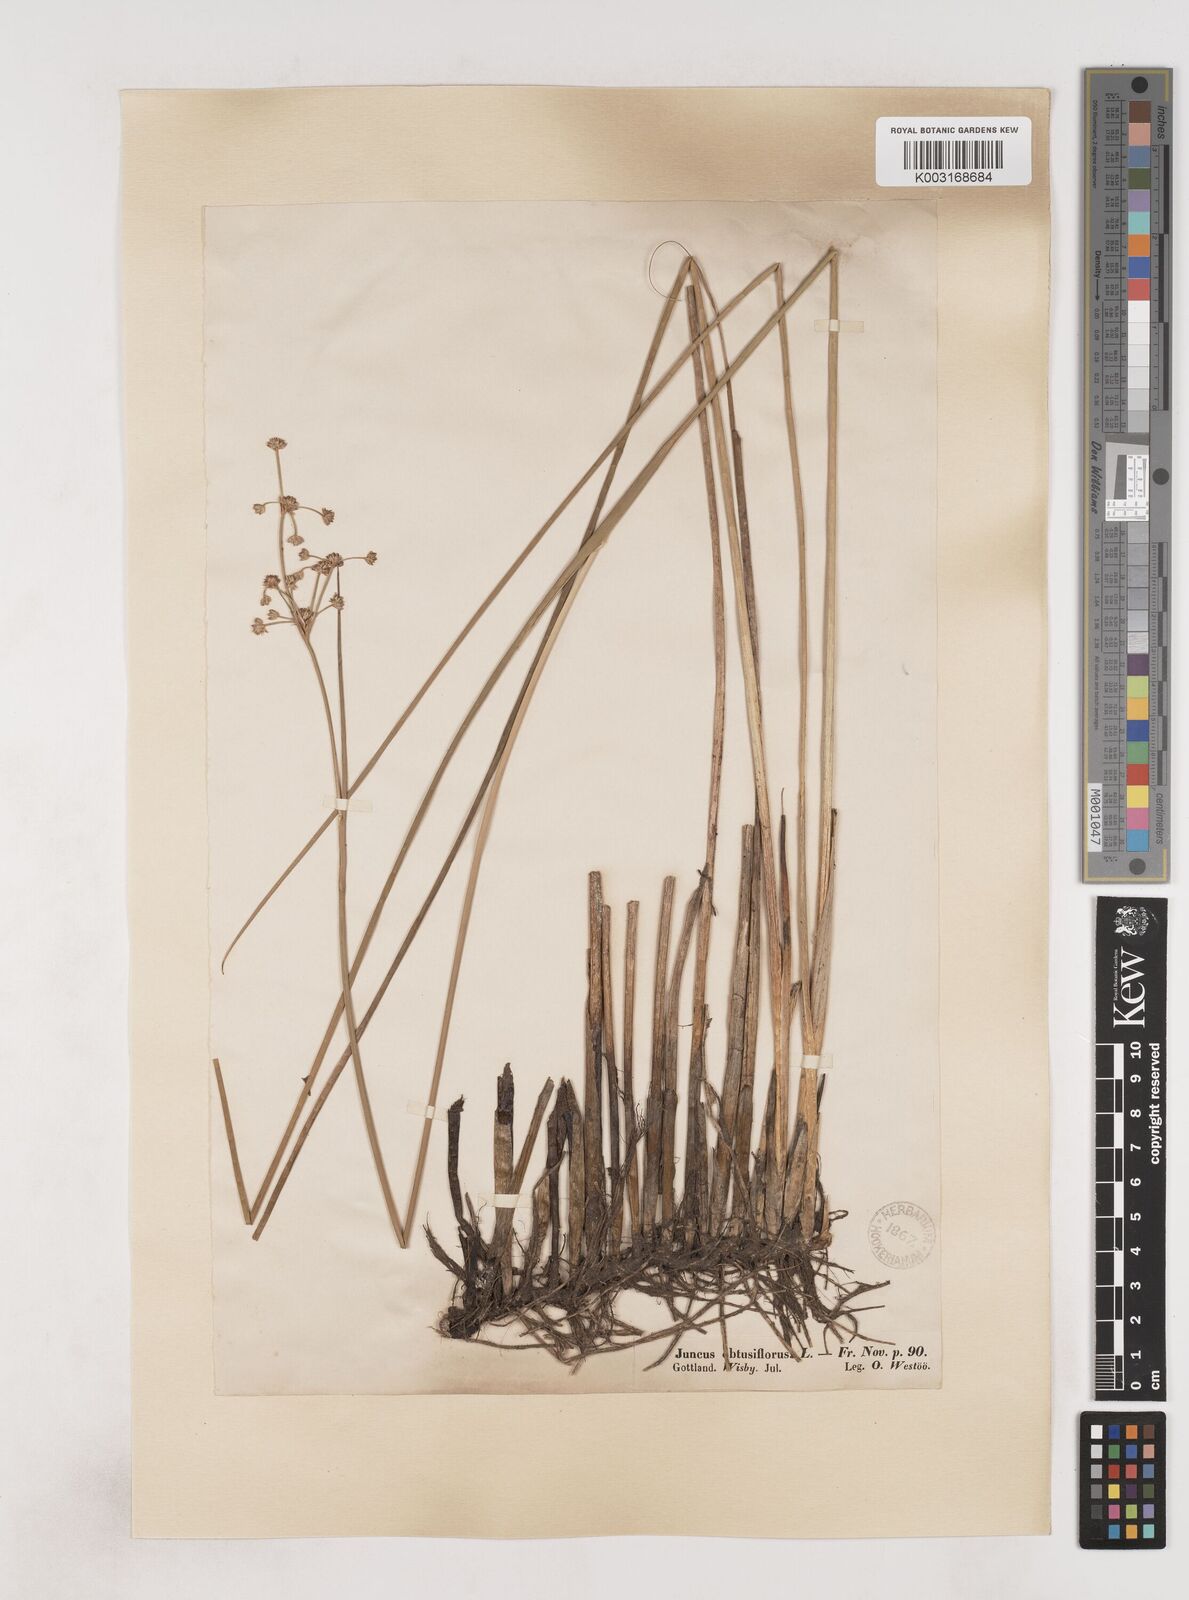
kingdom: Plantae
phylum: Tracheophyta
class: Liliopsida
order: Poales
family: Juncaceae
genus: Juncus
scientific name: Juncus subnodulosus
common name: Blunt-flowered rush
